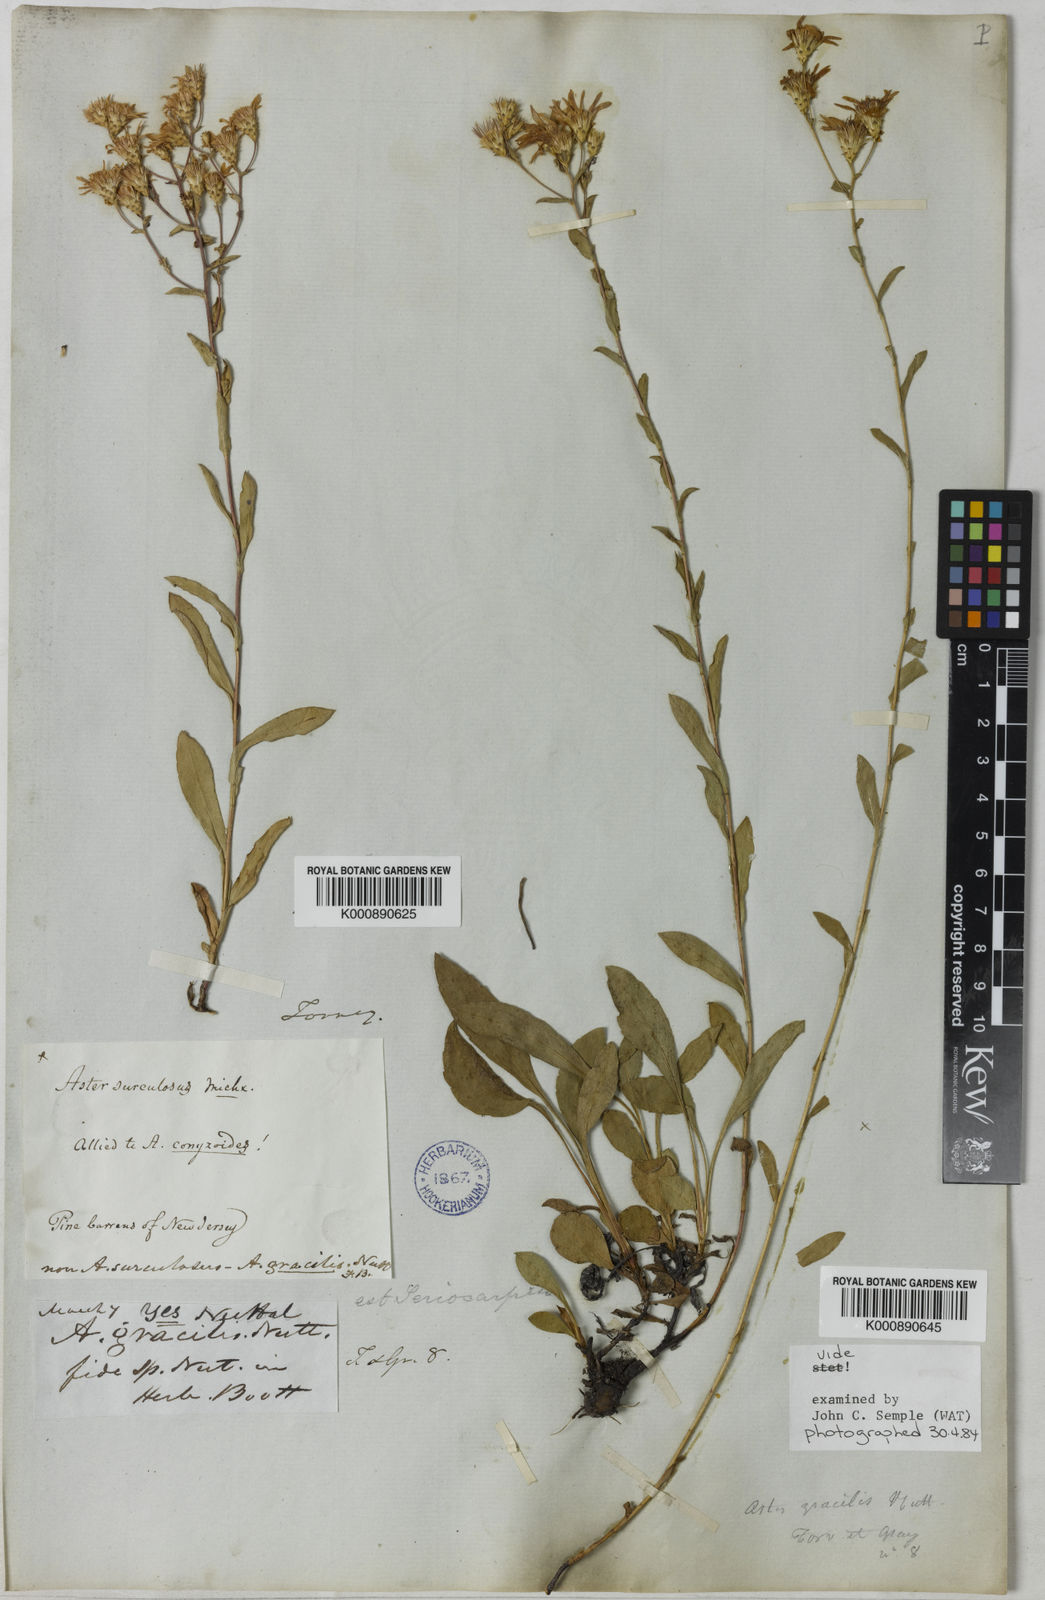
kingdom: Plantae
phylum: Tracheophyta
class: Magnoliopsida
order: Asterales
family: Asteraceae
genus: Eurybia
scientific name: Eurybia compacta
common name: Slender aster
